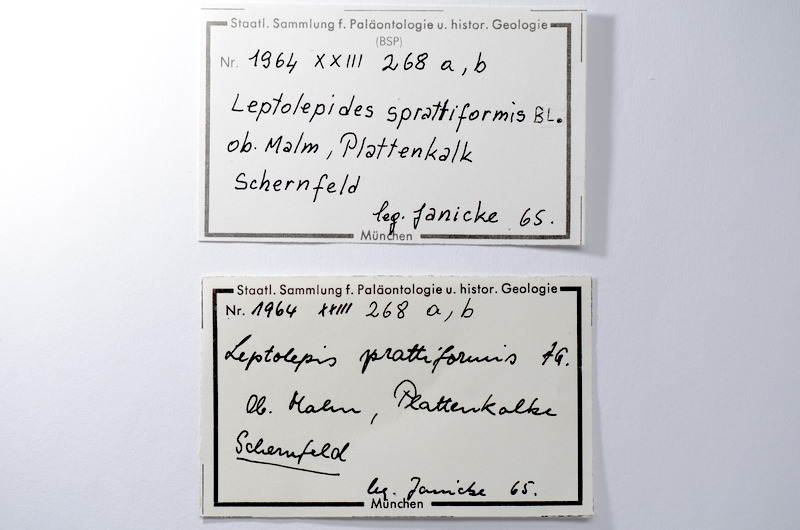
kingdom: Animalia
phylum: Chordata
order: Salmoniformes
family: Orthogonikleithridae
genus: Leptolepides
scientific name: Leptolepides sprattiformis
